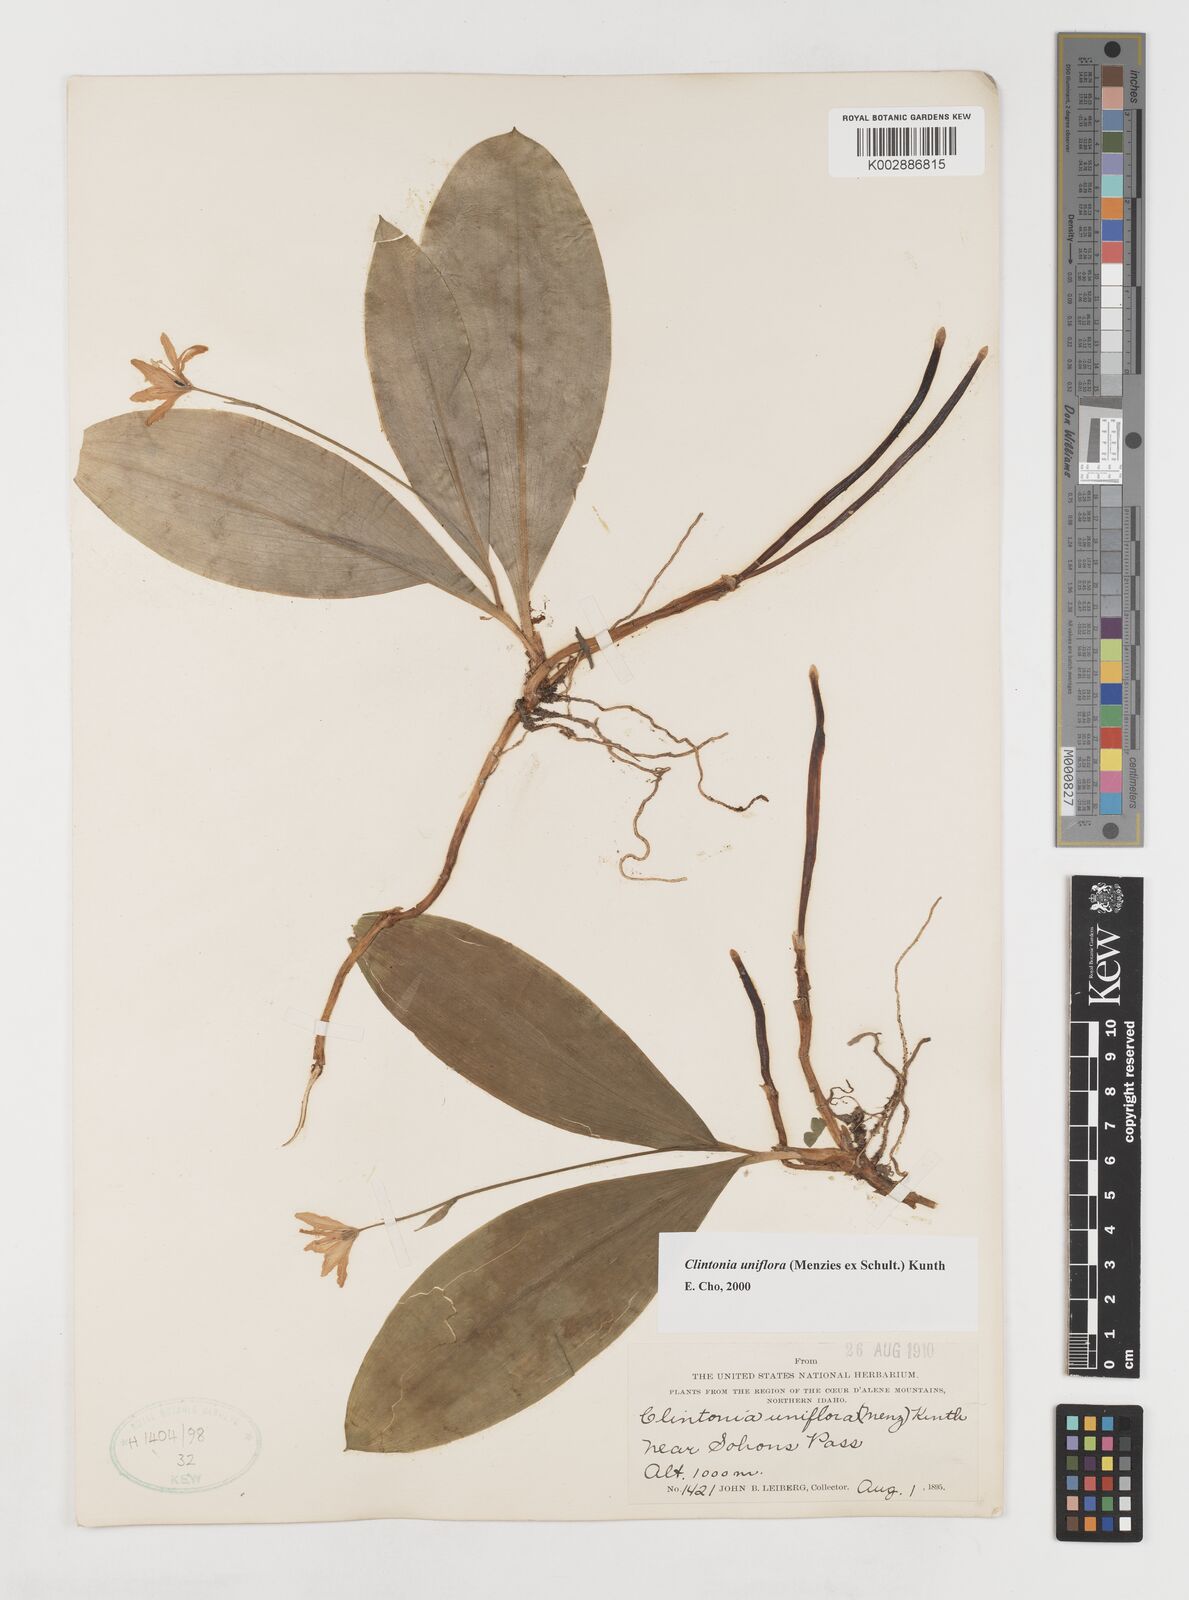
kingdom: Plantae
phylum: Tracheophyta
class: Liliopsida
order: Liliales
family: Liliaceae
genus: Clintonia
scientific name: Clintonia uniflora
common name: Queen's cup
